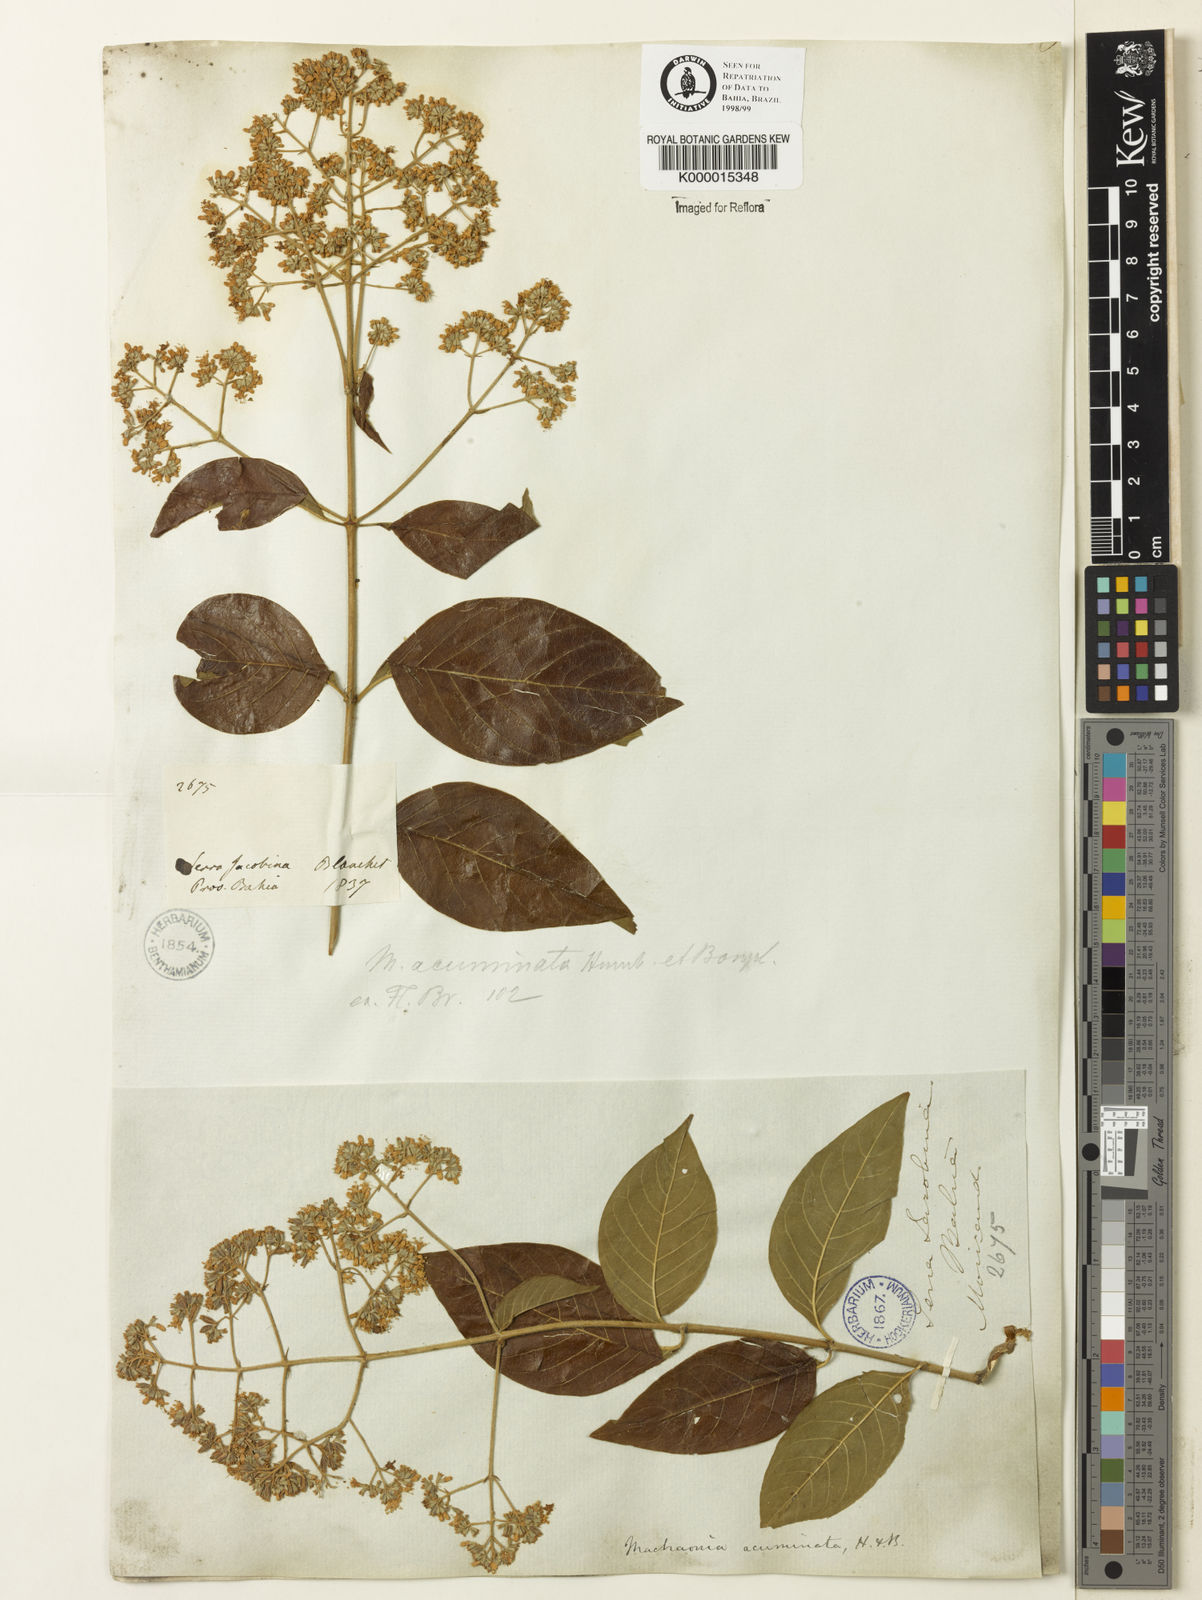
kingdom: Plantae
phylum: Tracheophyta
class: Magnoliopsida
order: Gentianales
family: Rubiaceae
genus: Machaonia
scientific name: Machaonia
